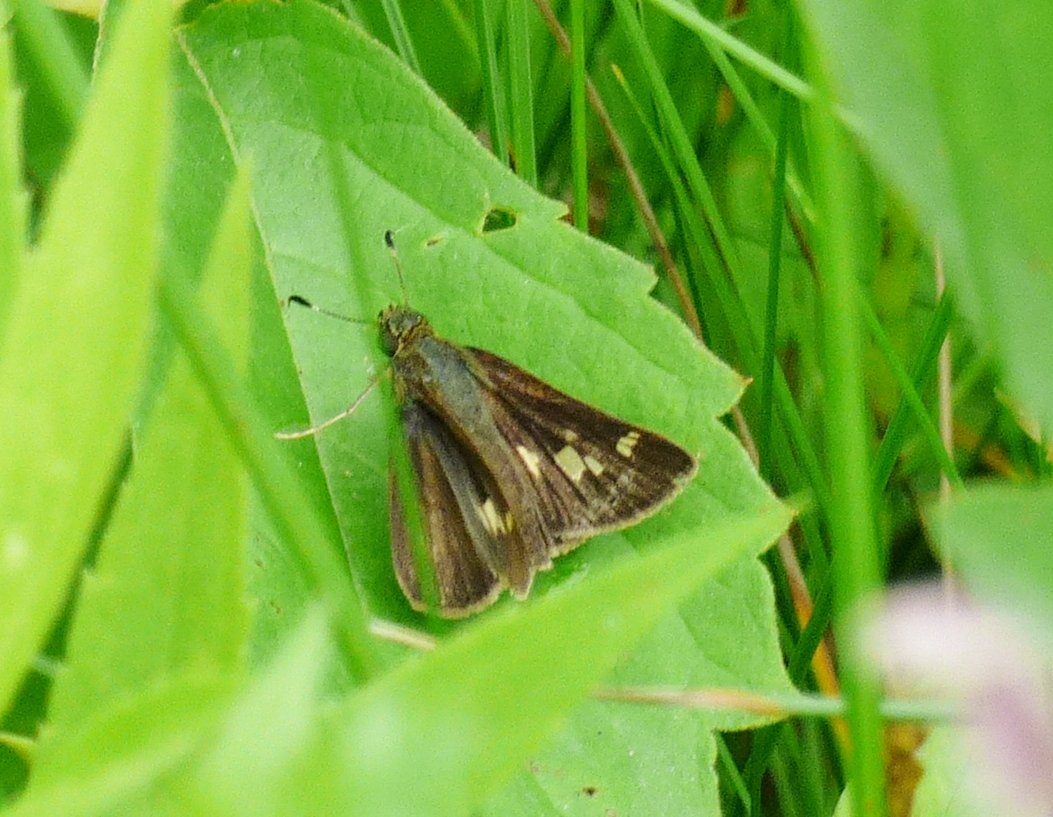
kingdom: Animalia
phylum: Arthropoda
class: Insecta
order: Lepidoptera
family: Hesperiidae
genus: Vernia
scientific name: Vernia verna
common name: Little Glassywing
